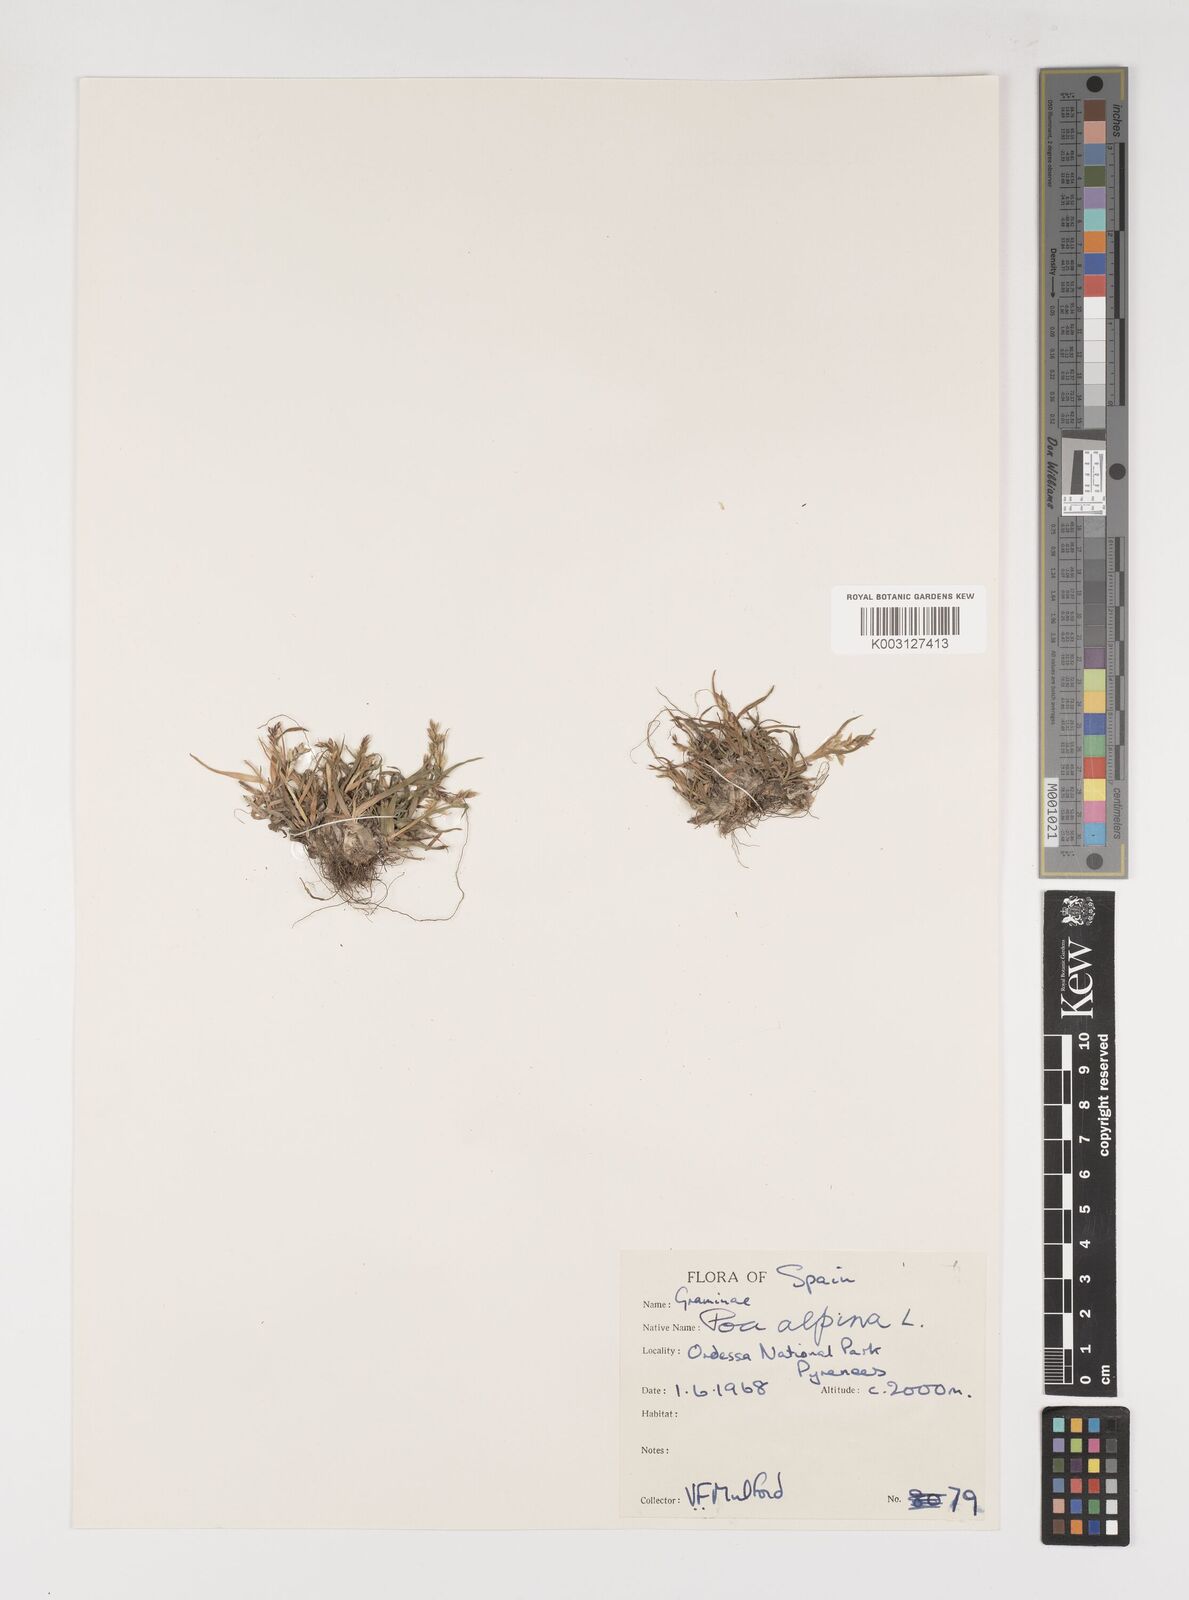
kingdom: Plantae
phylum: Tracheophyta
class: Liliopsida
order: Poales
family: Poaceae
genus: Poa
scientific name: Poa alpina
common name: Alpine bluegrass
